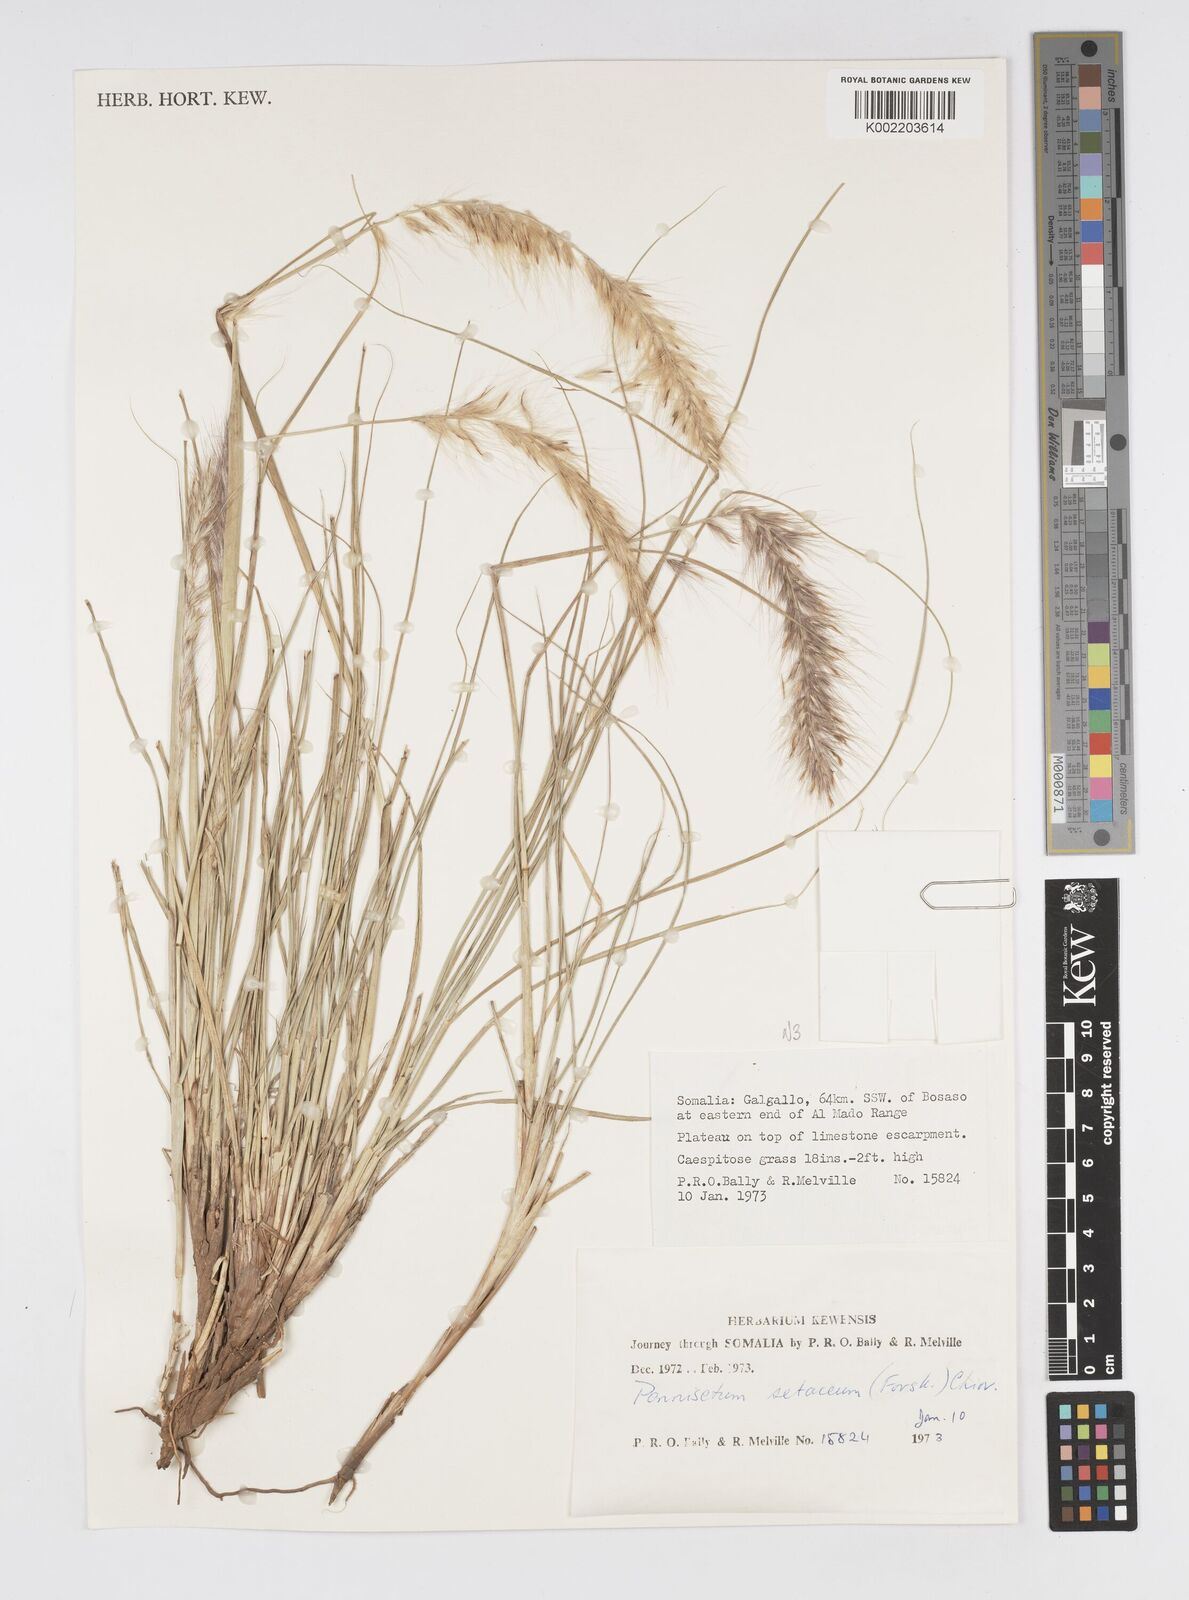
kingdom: Plantae
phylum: Tracheophyta
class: Liliopsida
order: Poales
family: Poaceae
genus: Cenchrus
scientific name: Cenchrus setaceus
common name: Crimson fountaingrass
